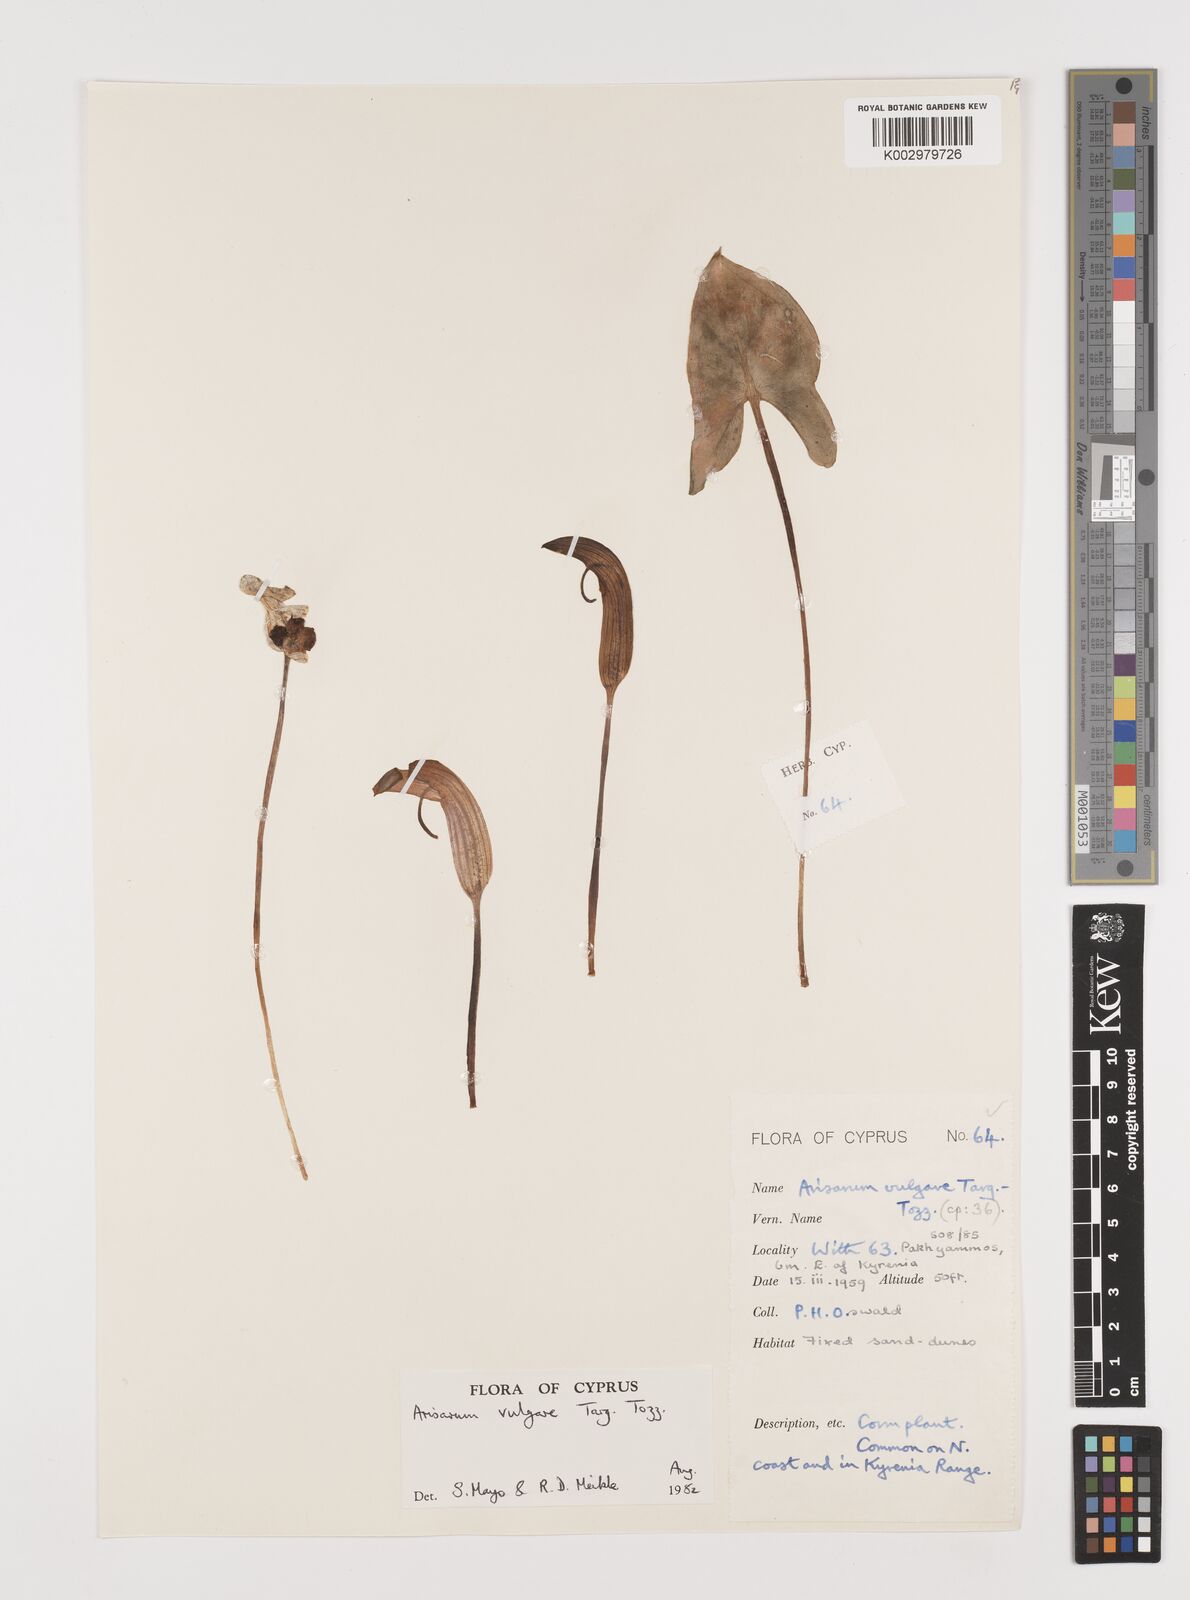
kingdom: Plantae
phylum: Tracheophyta
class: Liliopsida
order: Alismatales
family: Araceae
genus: Arisarum
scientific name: Arisarum vulgare
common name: Common arisarum
